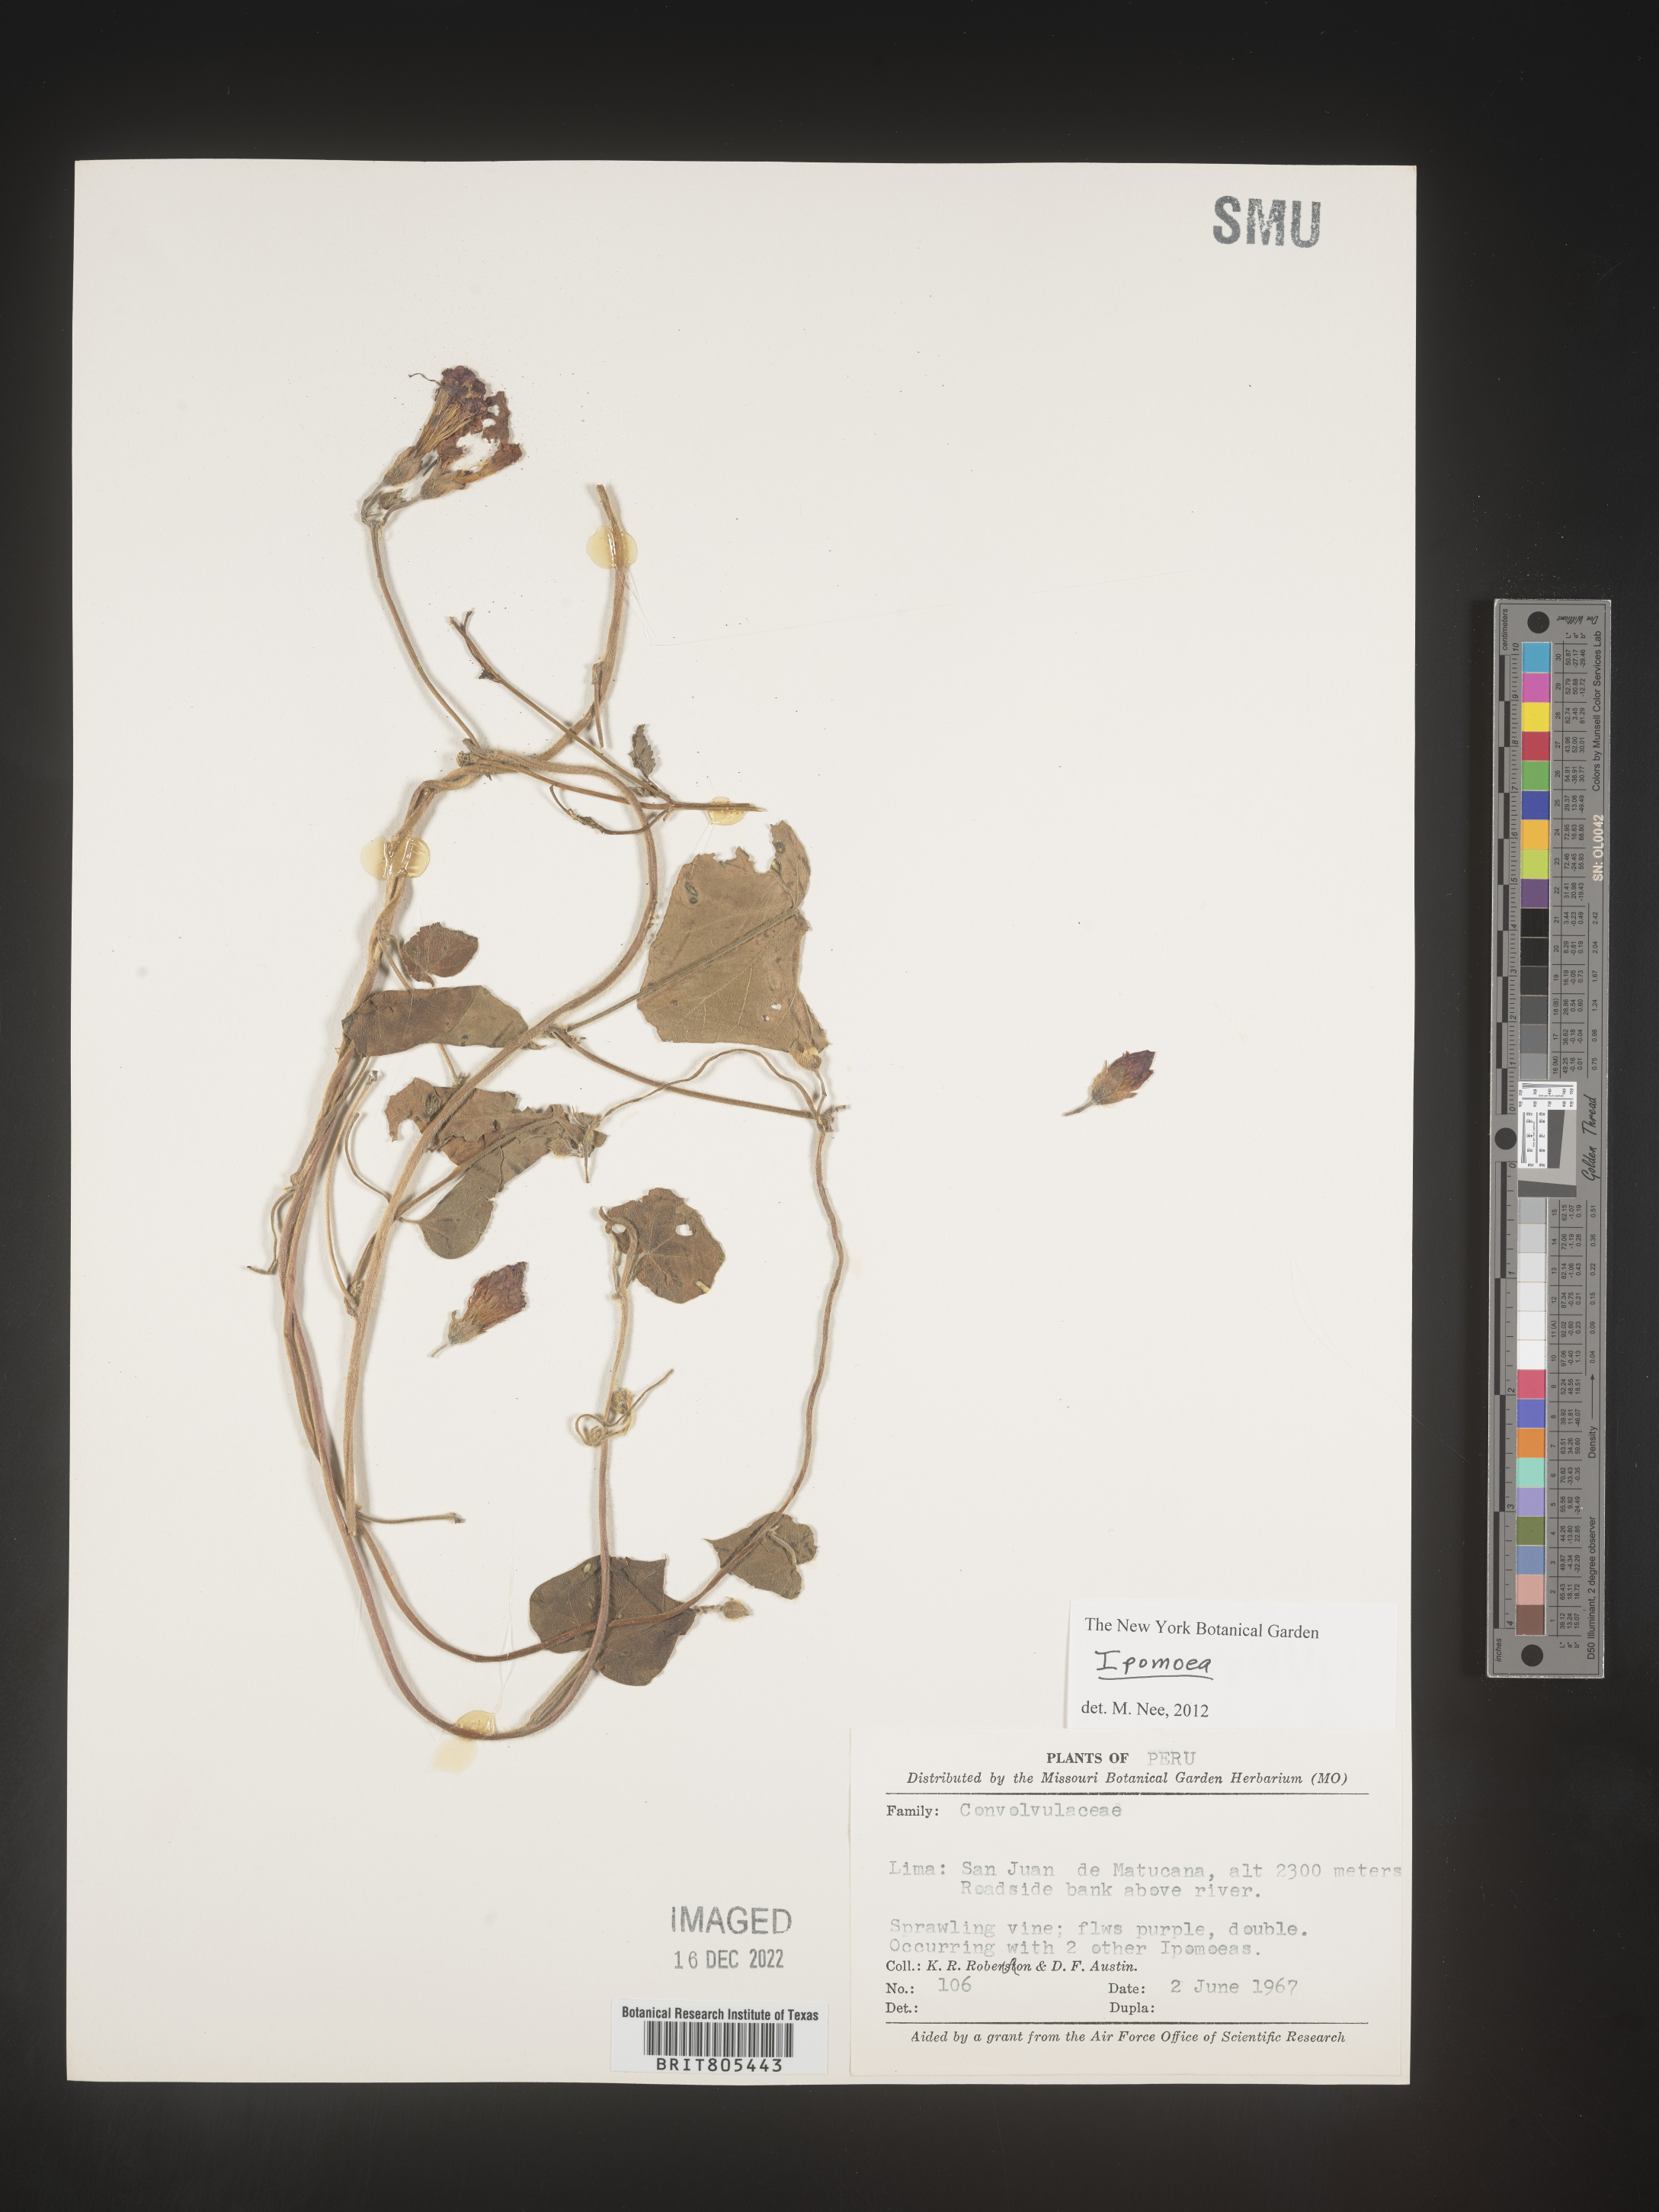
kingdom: Plantae
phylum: Tracheophyta
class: Magnoliopsida
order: Solanales
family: Convolvulaceae
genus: Ipomoea
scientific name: Ipomoea
